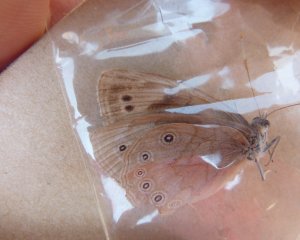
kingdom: Animalia
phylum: Arthropoda
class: Insecta
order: Lepidoptera
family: Nymphalidae
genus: Lethe
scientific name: Lethe eurydice
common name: Eyed Brown
